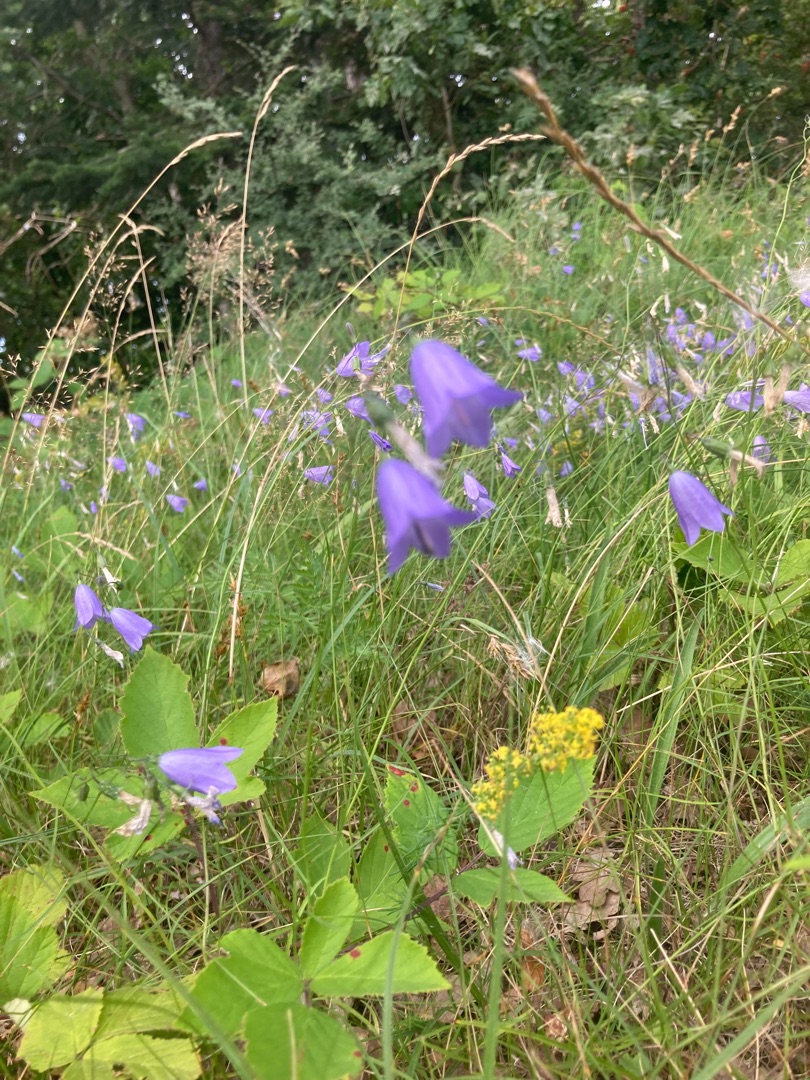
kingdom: Plantae
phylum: Tracheophyta
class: Magnoliopsida
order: Asterales
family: Campanulaceae
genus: Campanula
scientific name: Campanula rotundifolia
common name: Liden klokke
